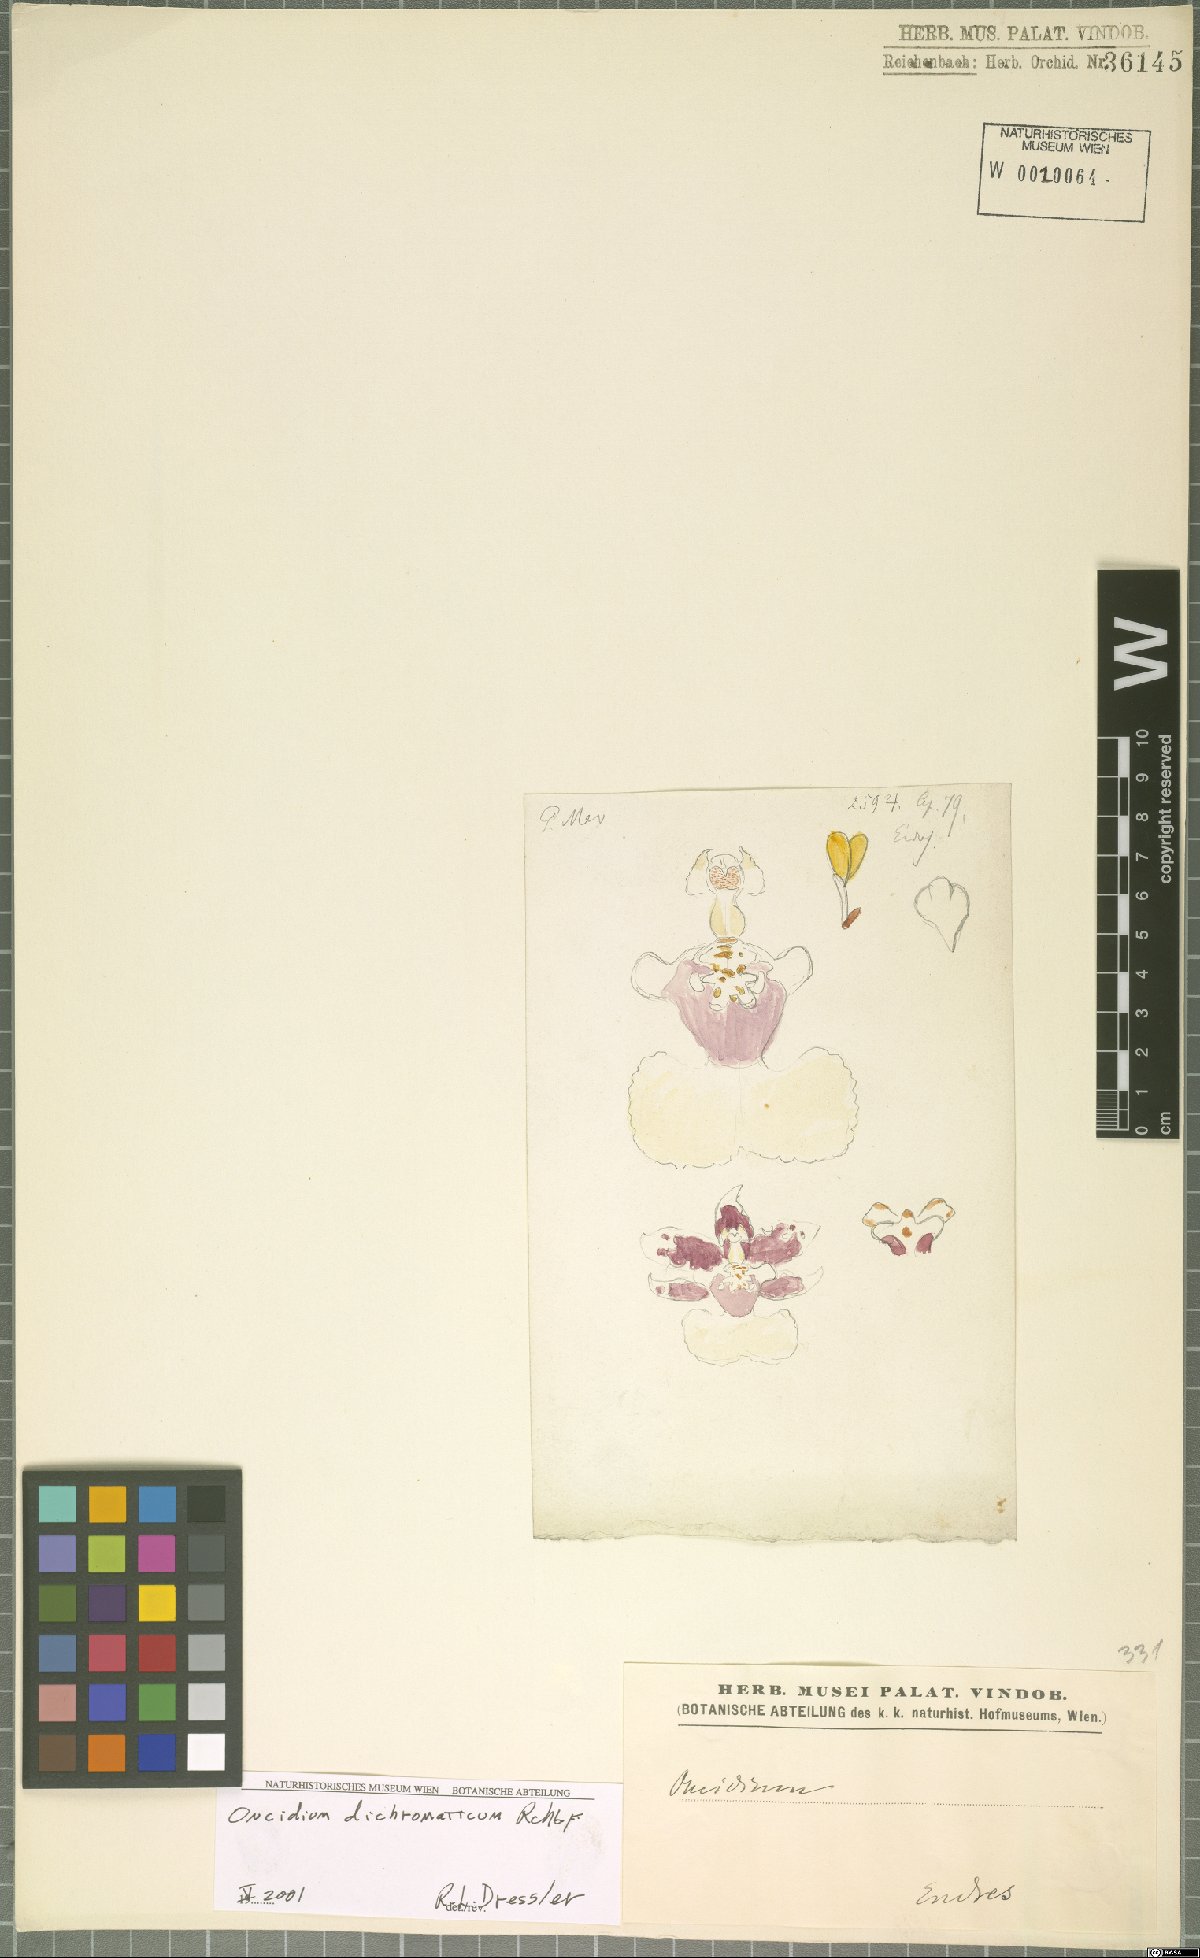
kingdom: Plantae
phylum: Tracheophyta
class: Liliopsida
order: Asparagales
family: Orchidaceae
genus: Oncidium
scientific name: Oncidium dichromaticum
